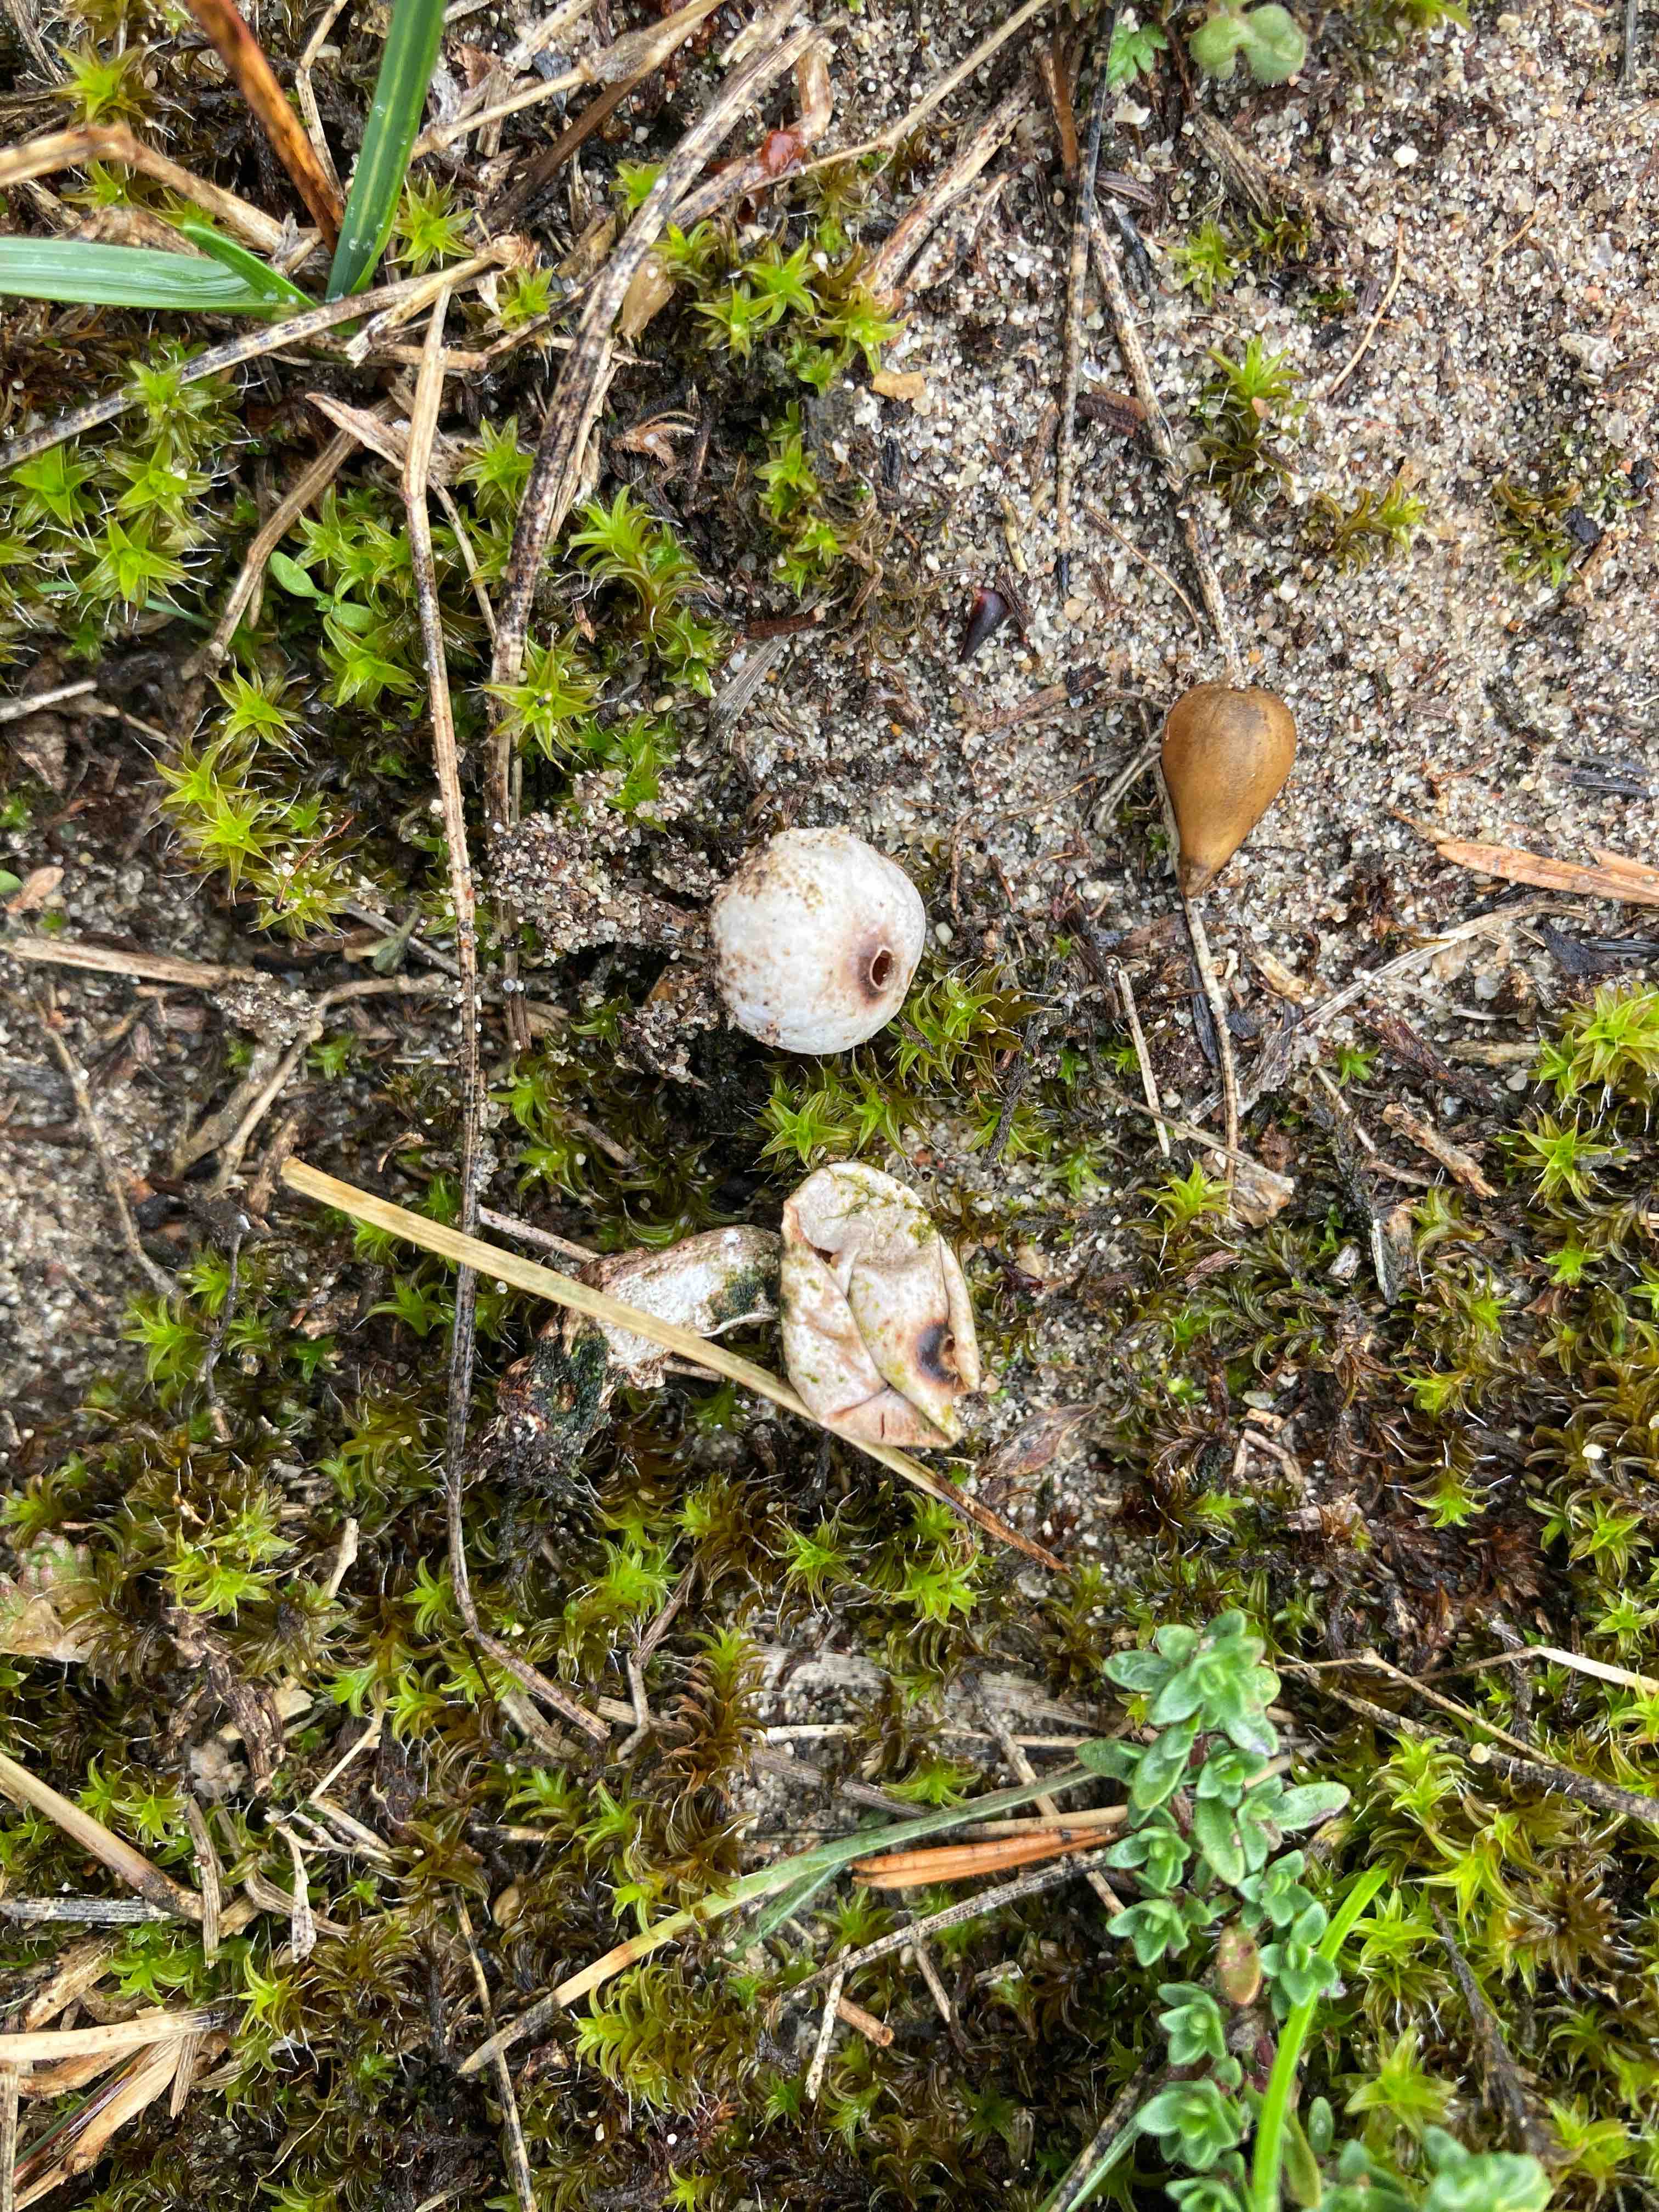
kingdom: Fungi
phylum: Basidiomycota
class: Agaricomycetes
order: Agaricales
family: Agaricaceae
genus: Tulostoma
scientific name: Tulostoma melanocyclum
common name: furet stilkbovist
